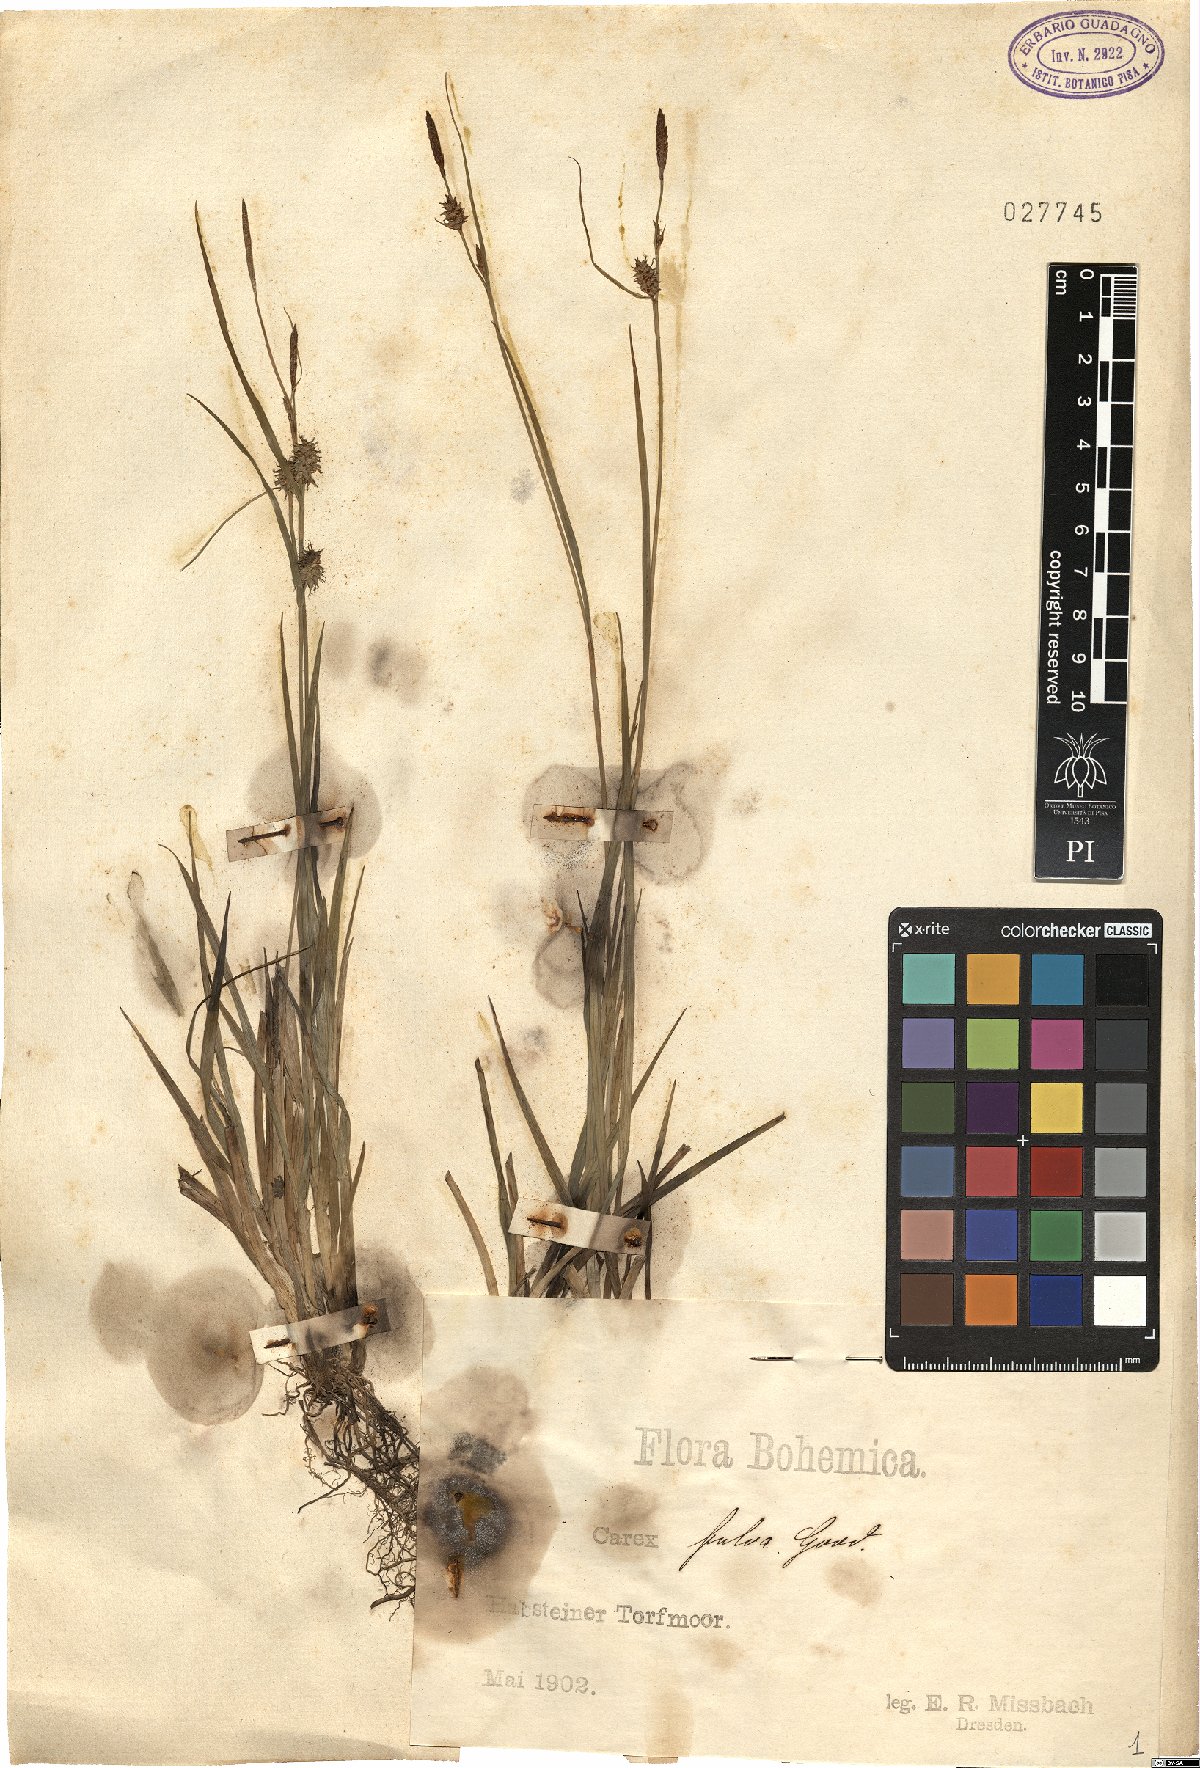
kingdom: Plantae
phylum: Tracheophyta
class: Liliopsida
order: Poales
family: Cyperaceae
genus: Carex
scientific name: Carex fulva
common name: Leutz's sedge
